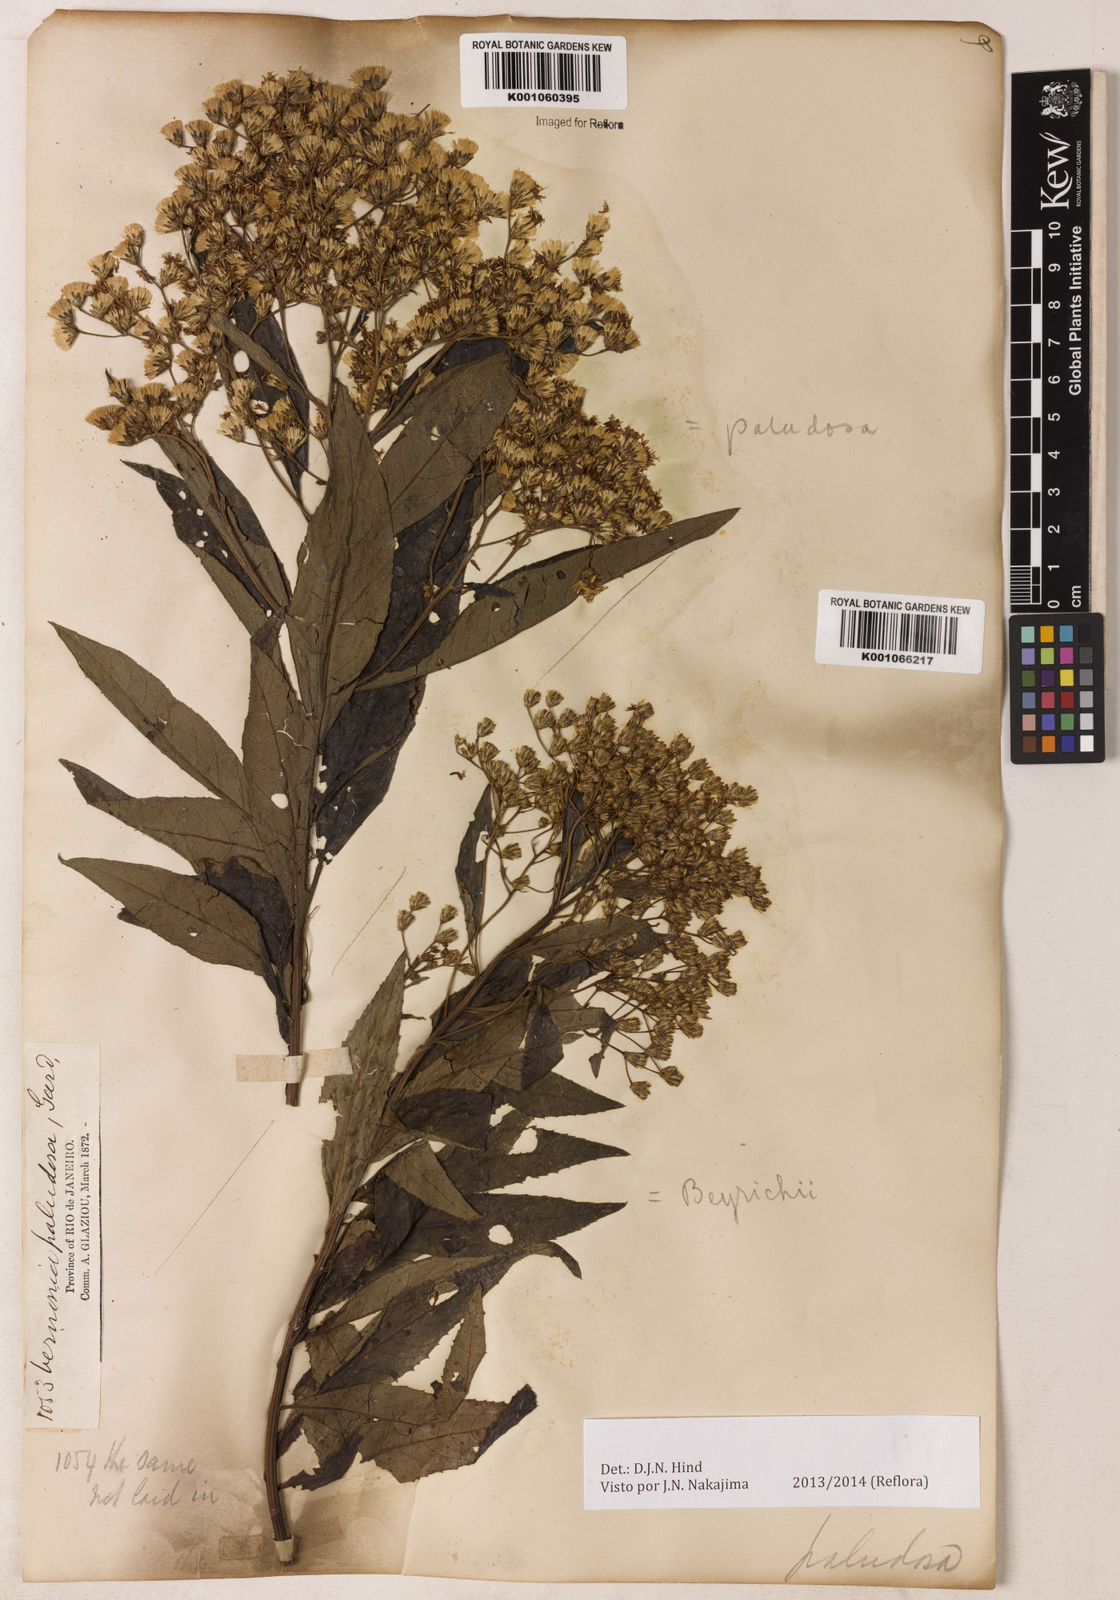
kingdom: Plantae
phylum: Tracheophyta
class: Magnoliopsida
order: Asterales
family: Asteraceae
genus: Vernonanthura
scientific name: Vernonanthura paludosa
